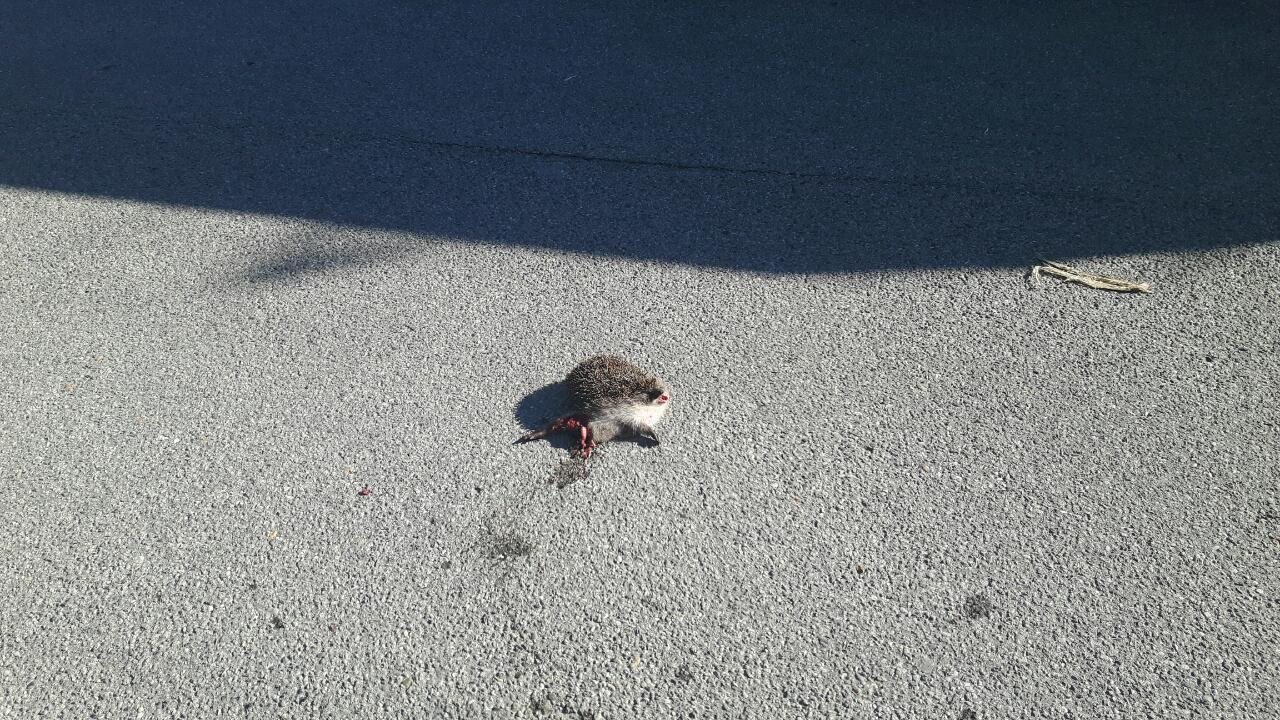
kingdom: Animalia
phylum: Chordata
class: Mammalia
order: Erinaceomorpha
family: Erinaceidae
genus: Erinaceus
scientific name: Erinaceus
